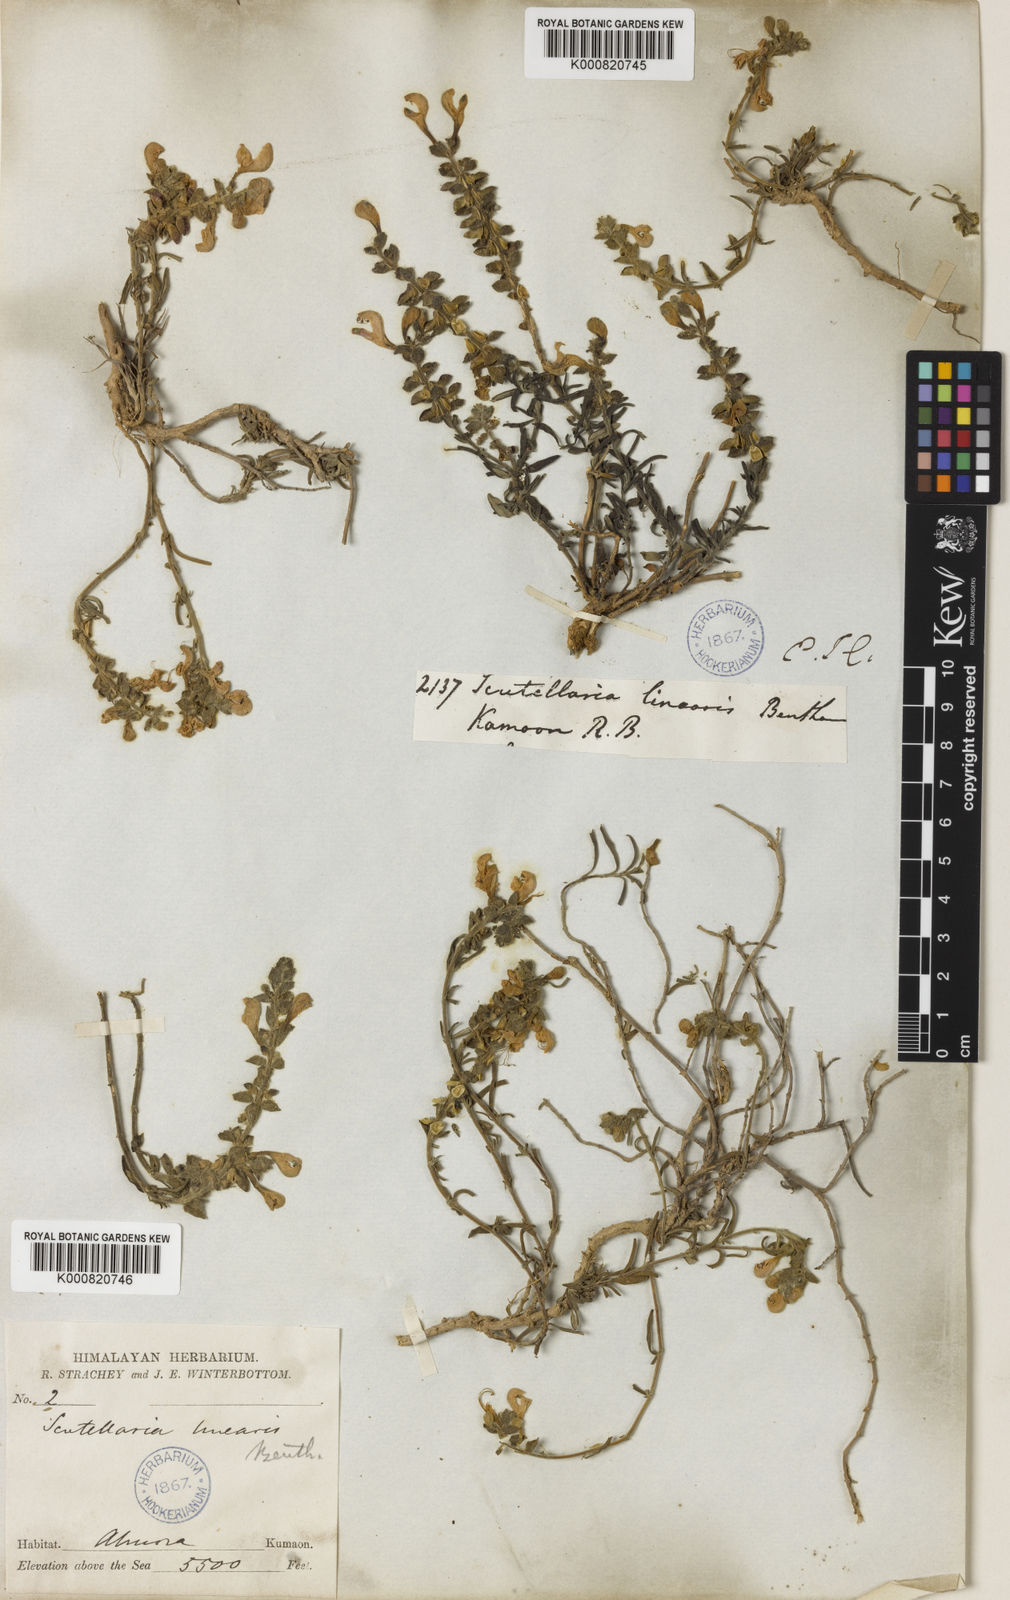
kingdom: Plantae
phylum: Tracheophyta
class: Magnoliopsida
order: Lamiales
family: Lamiaceae
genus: Scutellaria
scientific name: Scutellaria linearis
